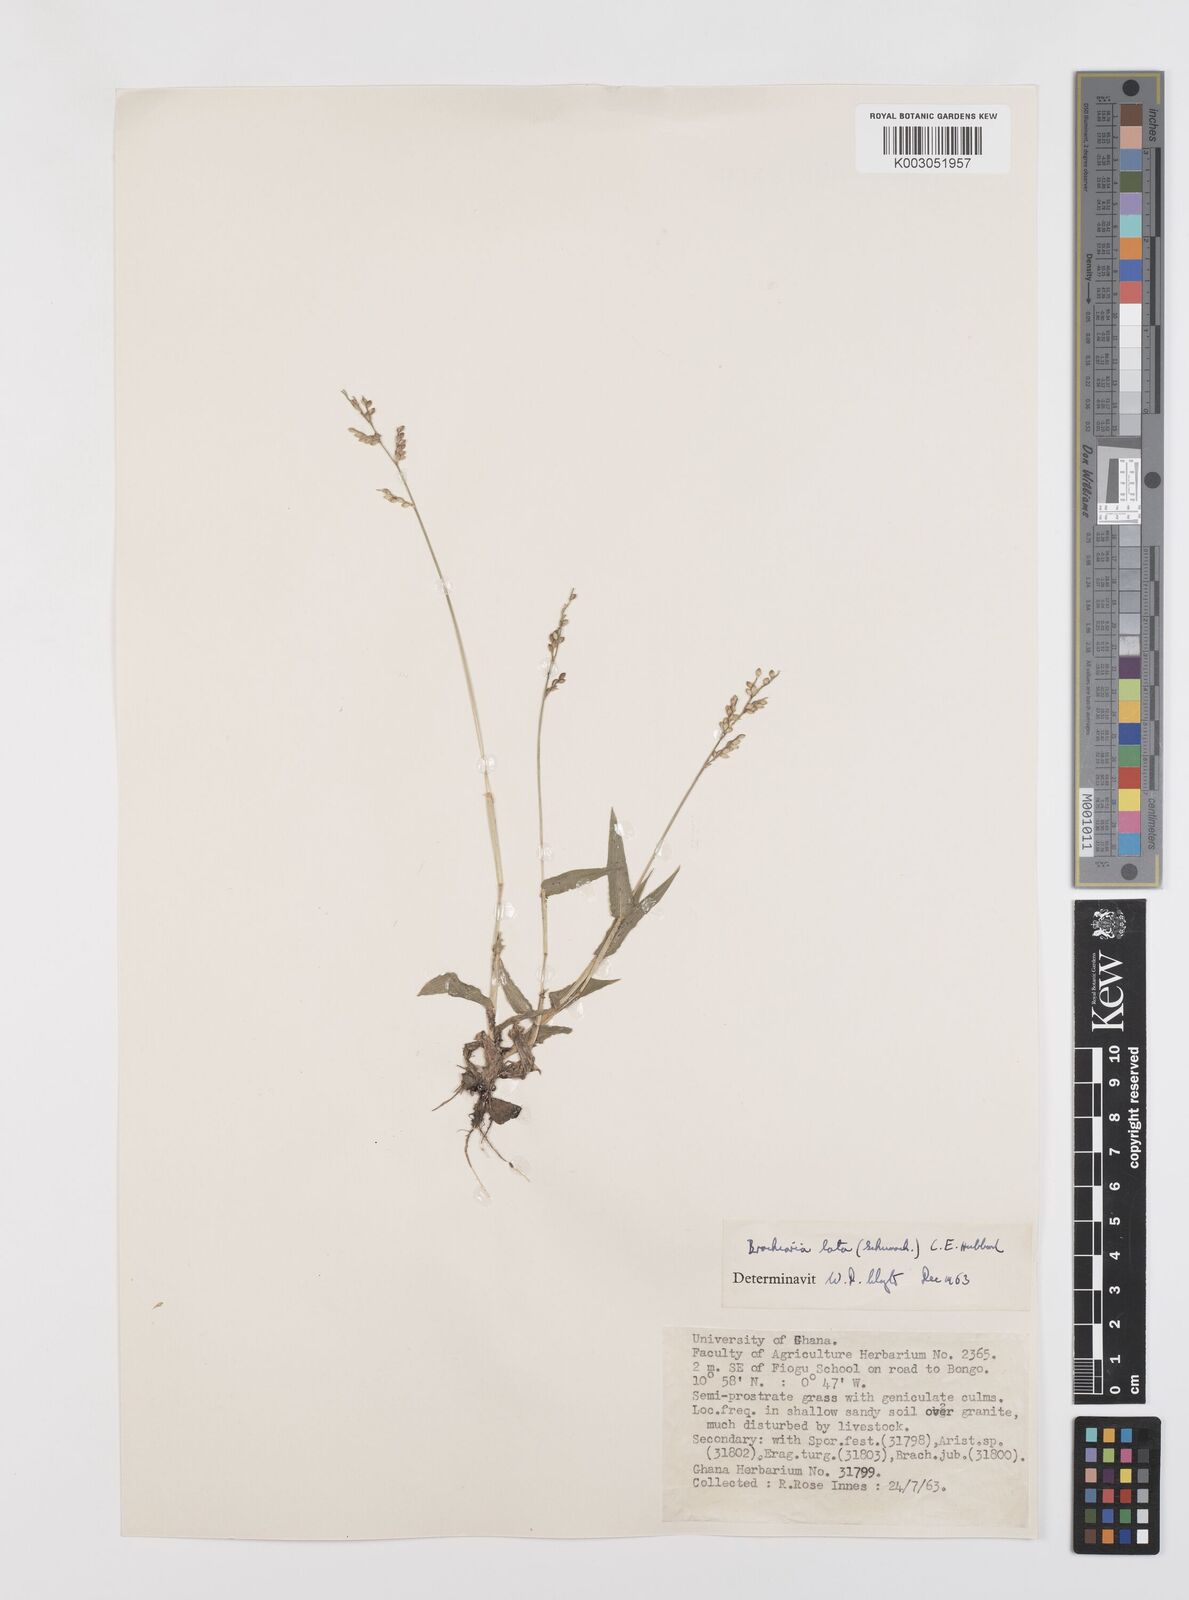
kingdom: Plantae
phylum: Tracheophyta
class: Liliopsida
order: Poales
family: Poaceae
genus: Urochloa
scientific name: Urochloa lata
